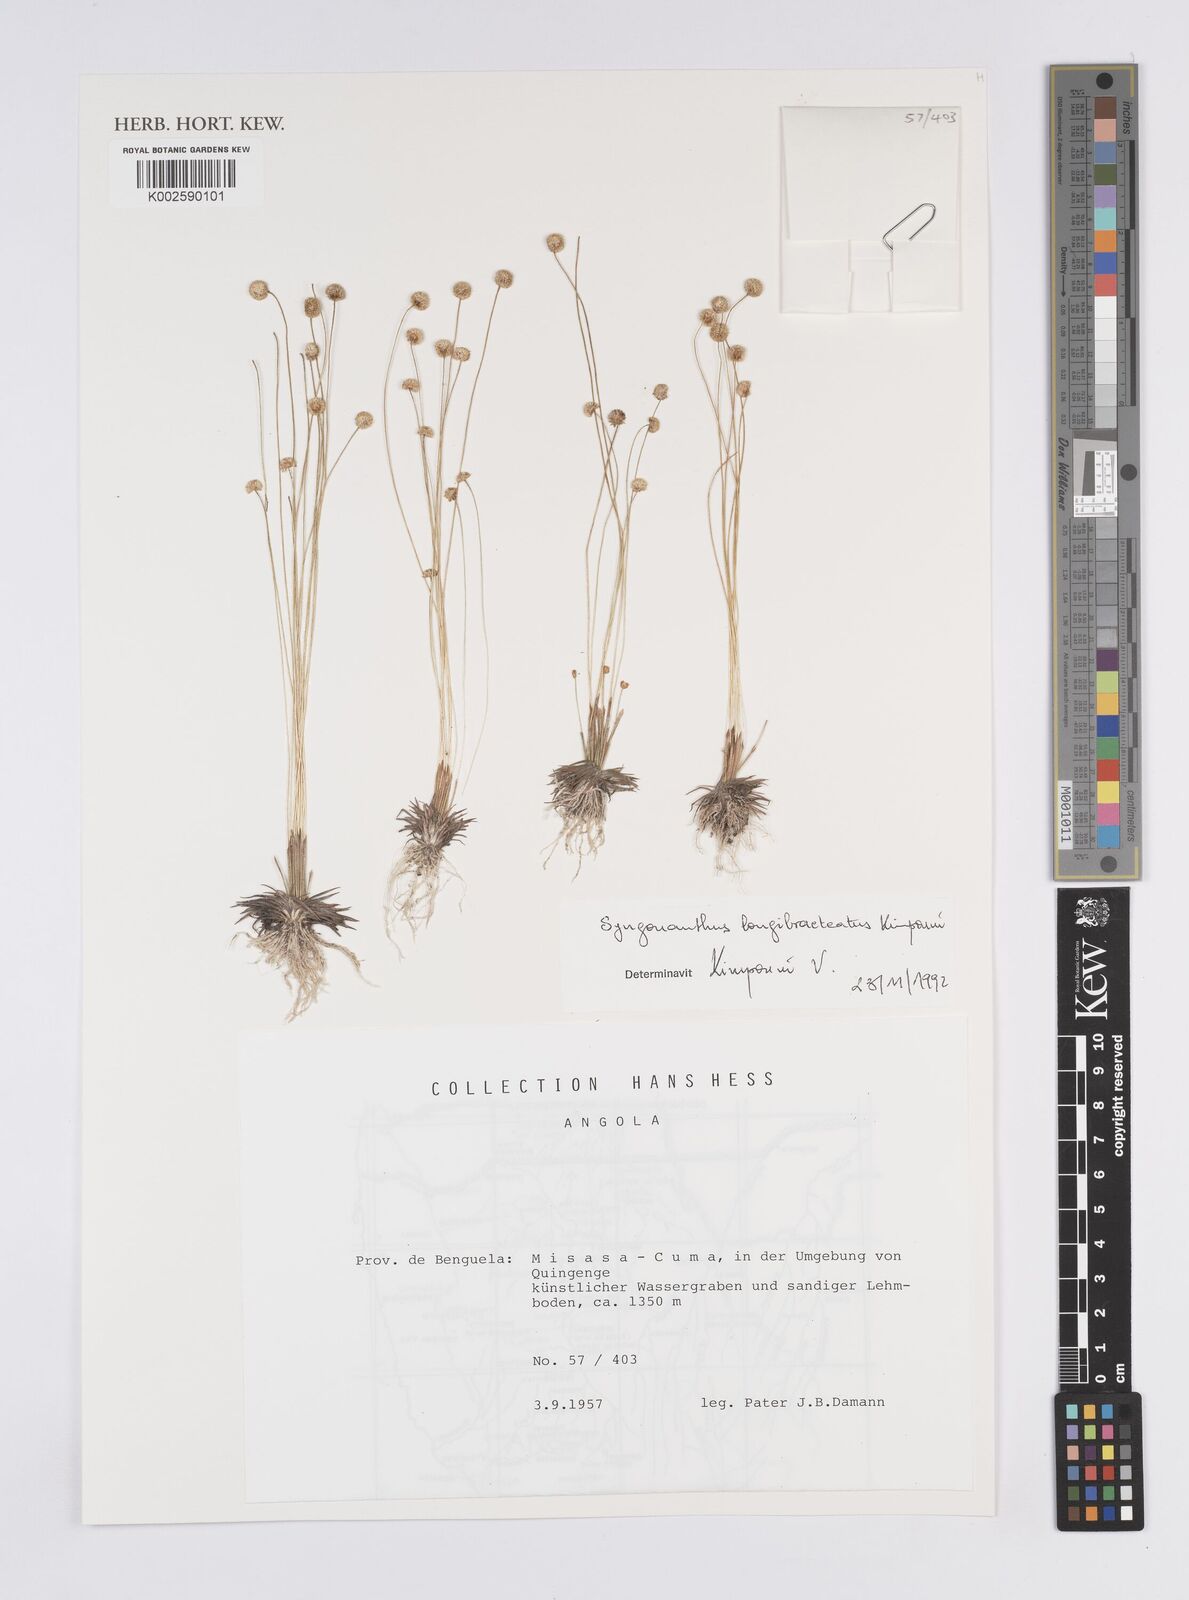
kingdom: Plantae
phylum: Tracheophyta
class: Liliopsida
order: Poales
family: Eriocaulaceae
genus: Syngonanthus
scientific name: Syngonanthus longibracteatus
